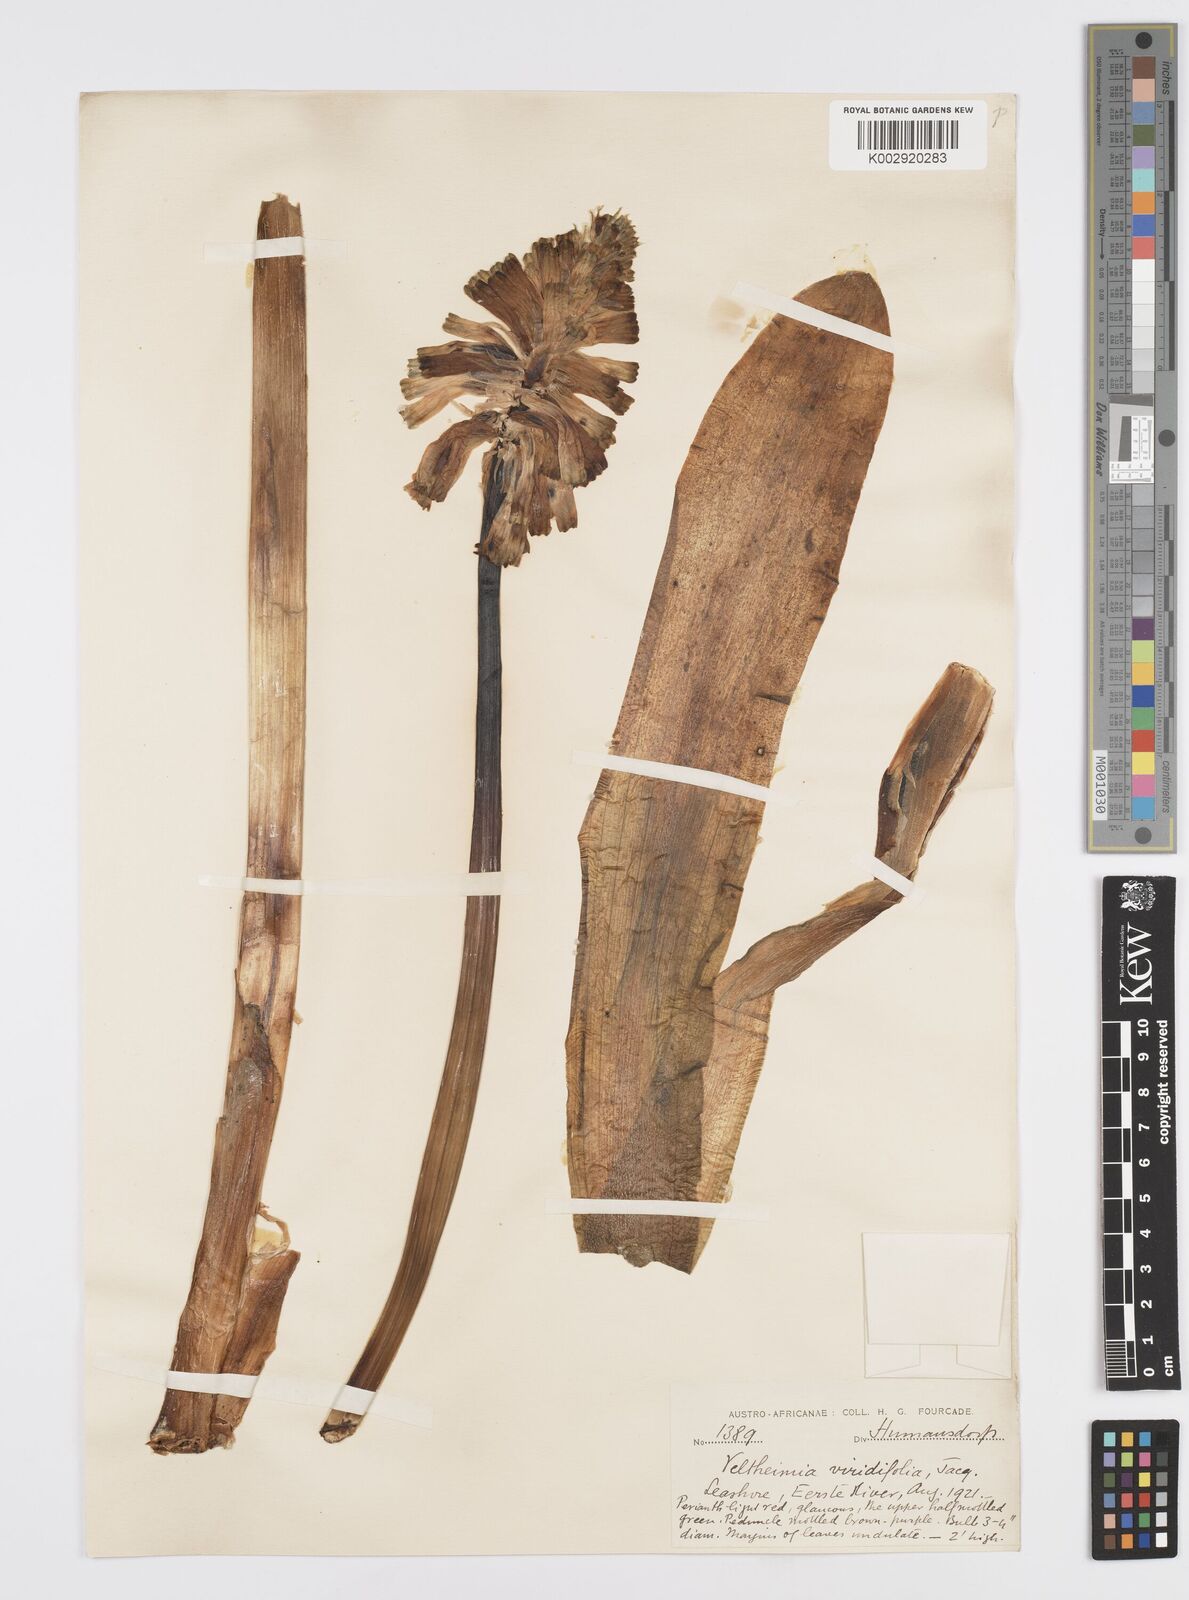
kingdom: Plantae
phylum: Tracheophyta
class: Liliopsida
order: Asparagales
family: Asparagaceae
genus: Veltheimia
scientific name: Veltheimia bracteata
